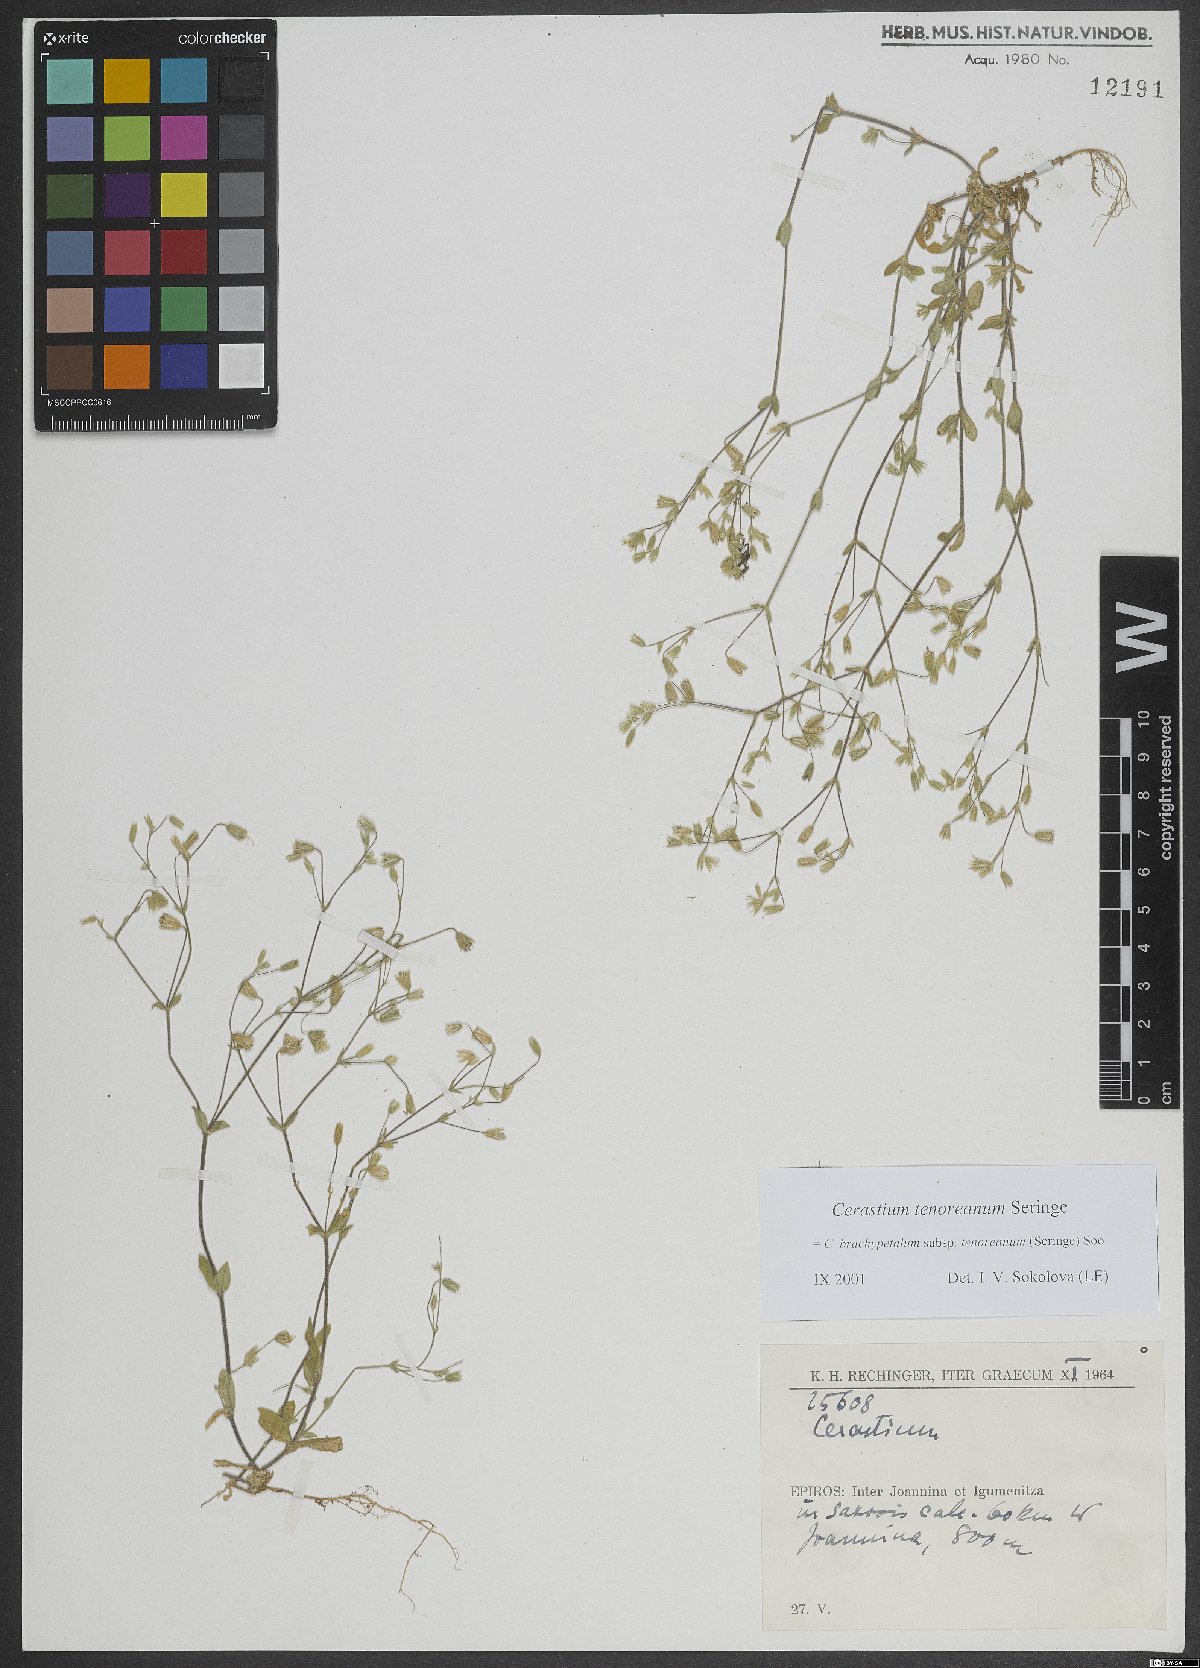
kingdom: Plantae
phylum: Tracheophyta
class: Magnoliopsida
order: Caryophyllales
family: Caryophyllaceae
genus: Cerastium
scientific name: Cerastium tenoreanum
